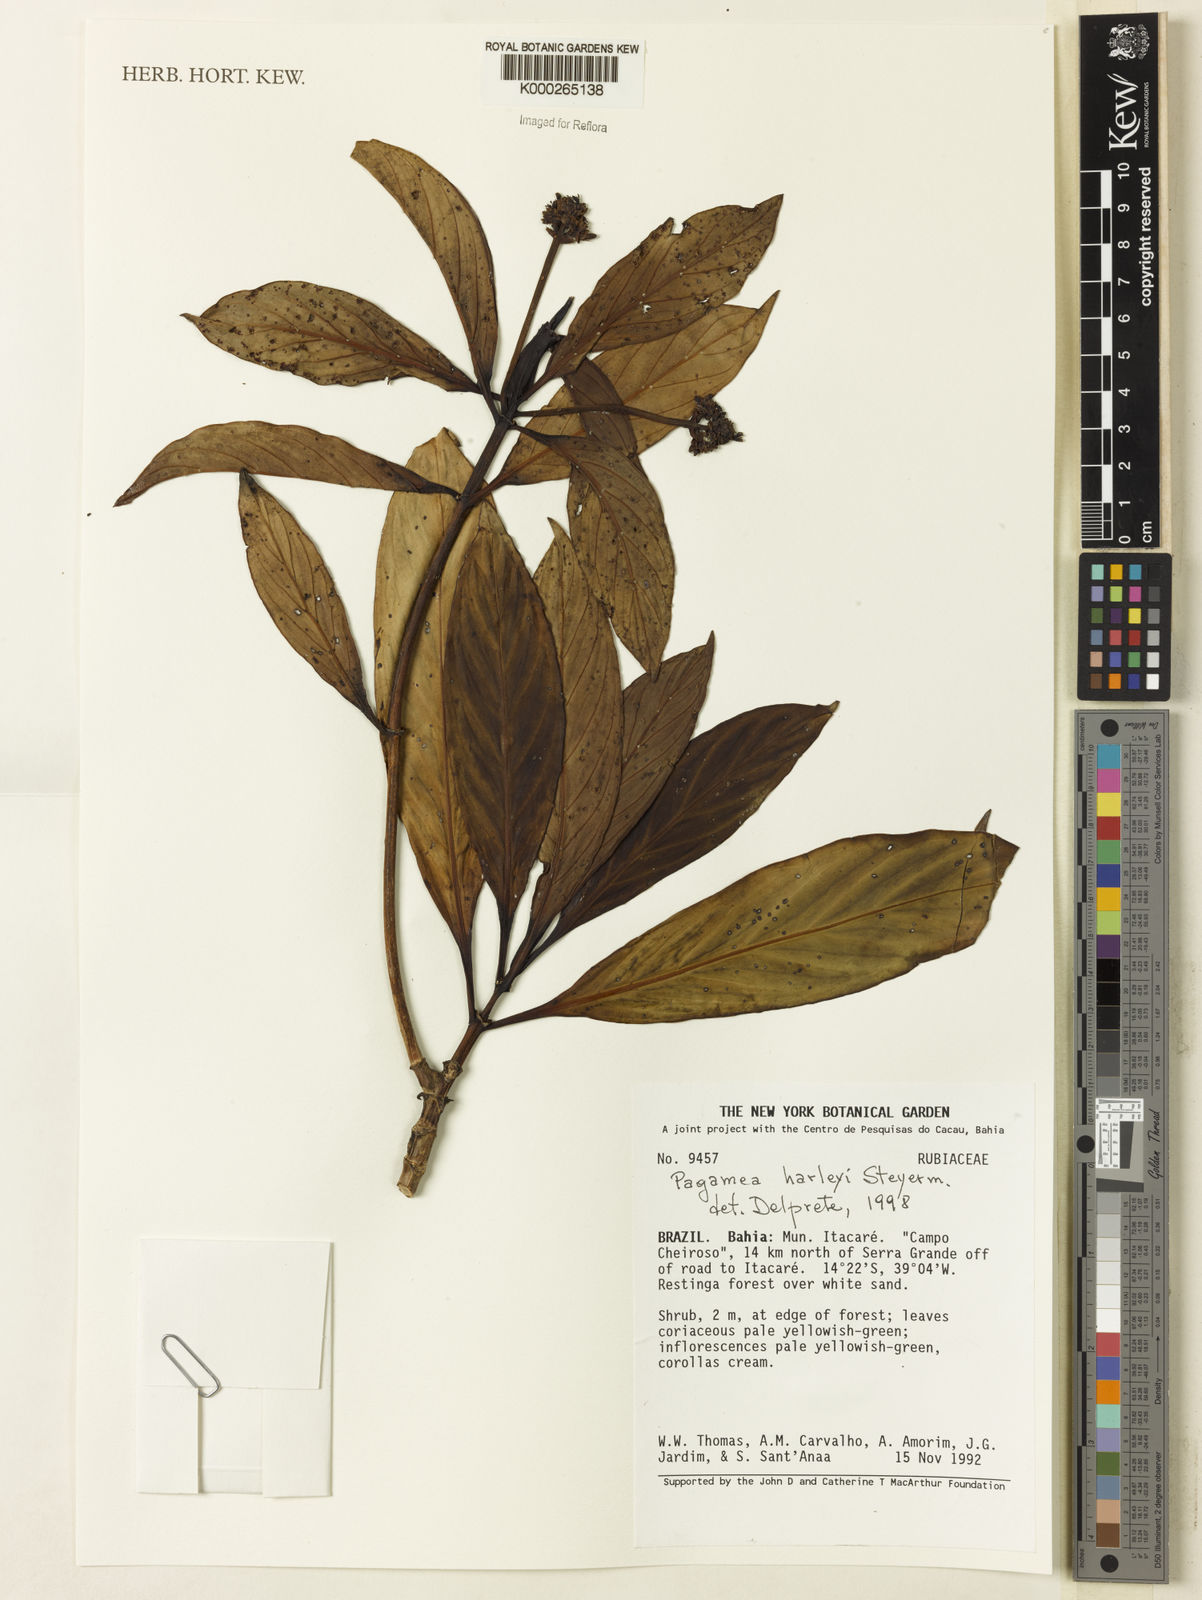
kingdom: Plantae
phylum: Tracheophyta
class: Magnoliopsida
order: Gentianales
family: Rubiaceae
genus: Pagamea
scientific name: Pagamea harleyi
